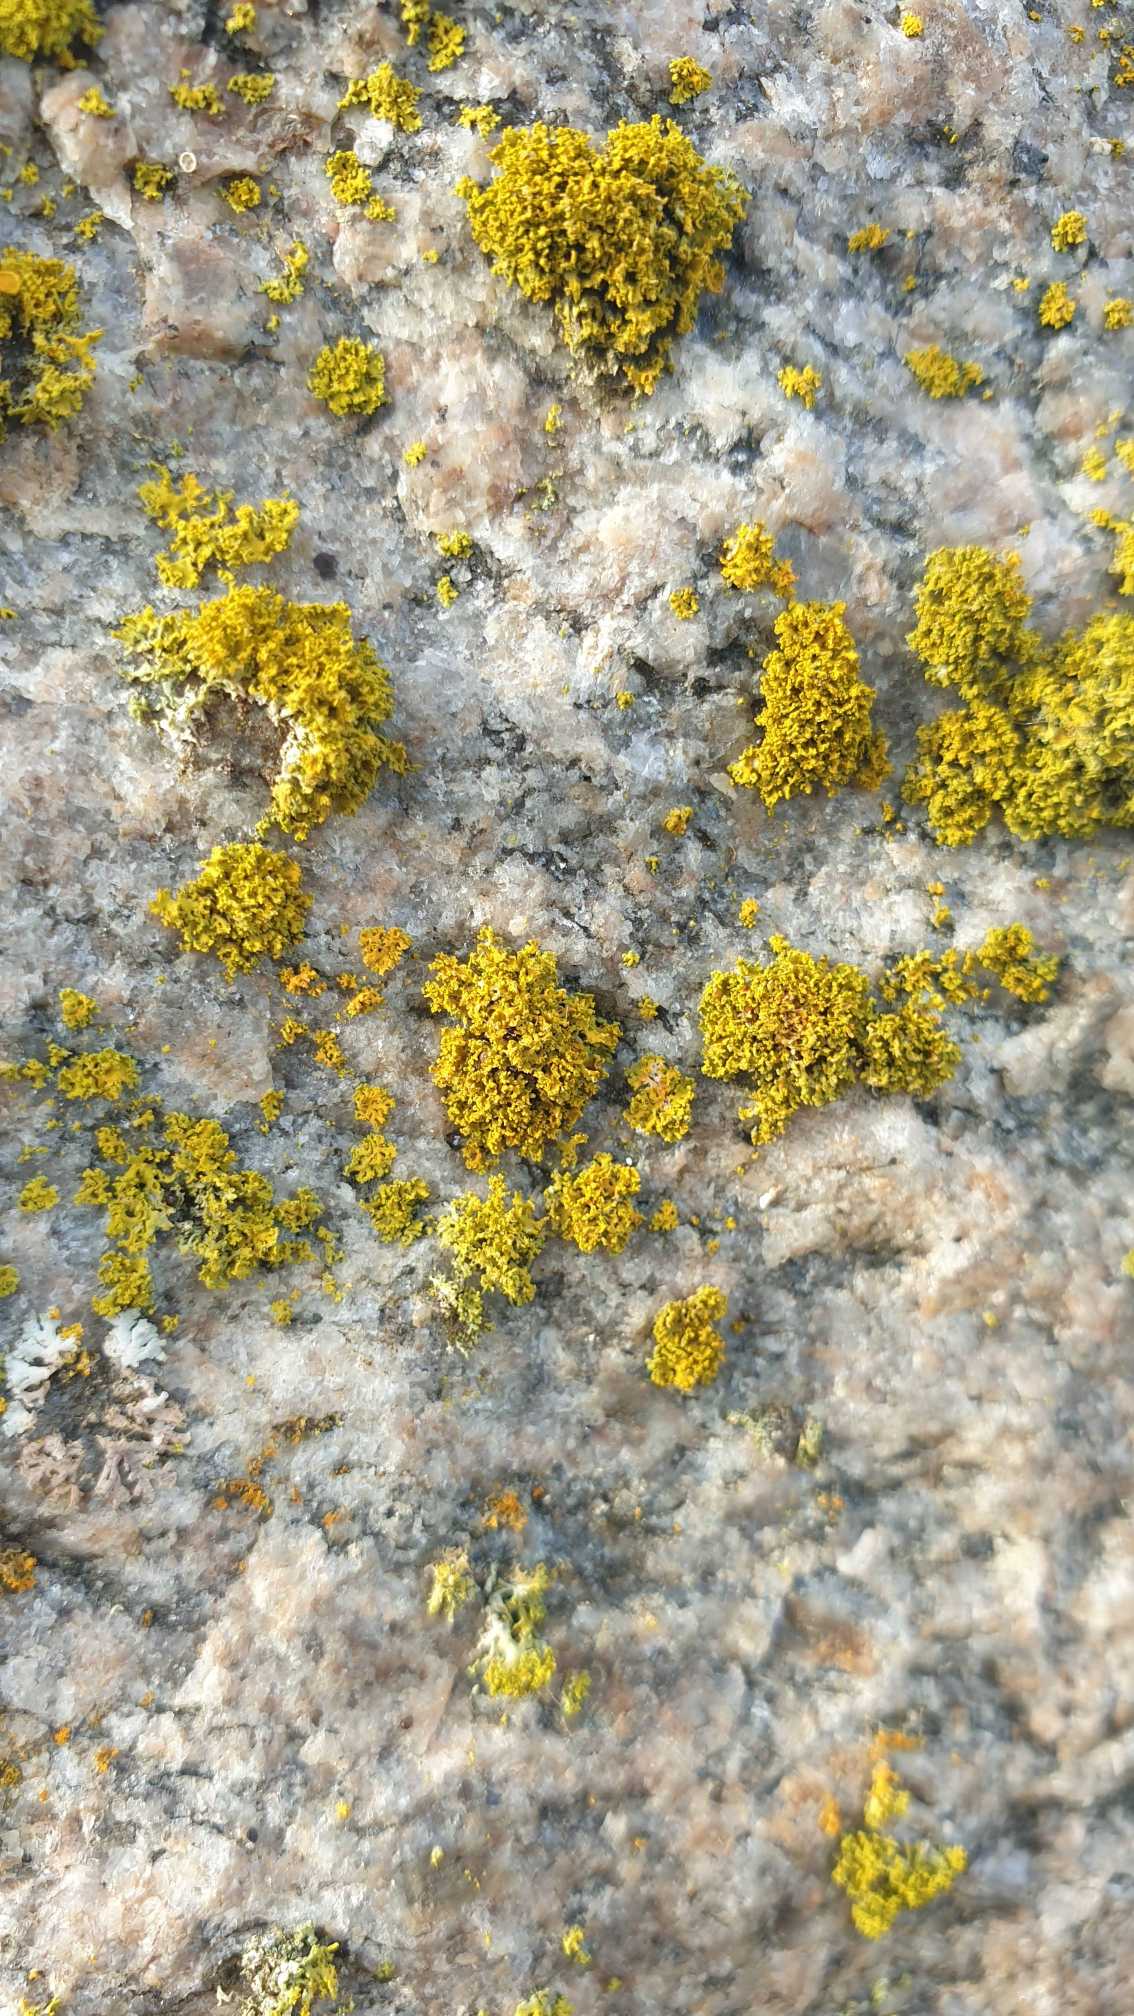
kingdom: Fungi
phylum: Ascomycota
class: Lecanoromycetes
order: Teloschistales
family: Teloschistaceae
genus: Polycauliona
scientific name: Polycauliona candelaria
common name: Tue-orangelav
